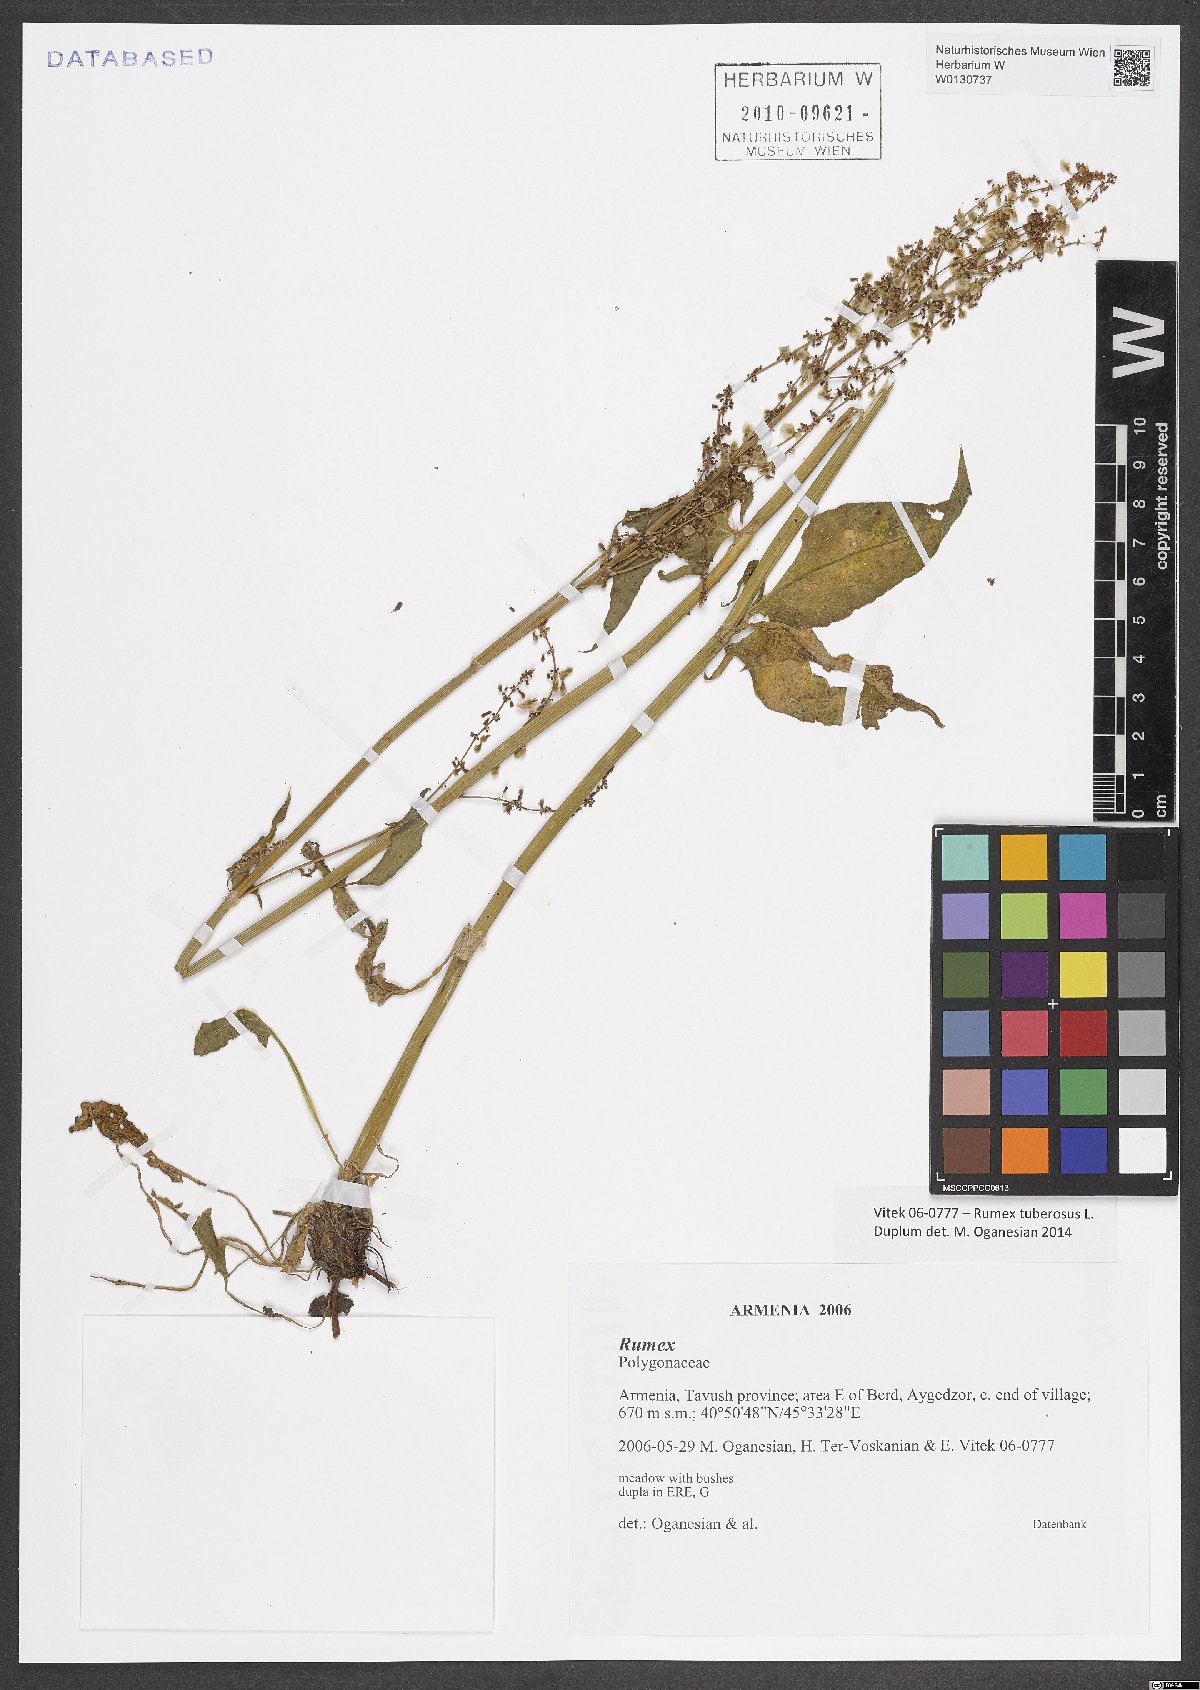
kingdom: Plantae
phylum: Tracheophyta
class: Magnoliopsida
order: Caryophyllales
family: Polygonaceae
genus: Rumex
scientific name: Rumex tuberosus
